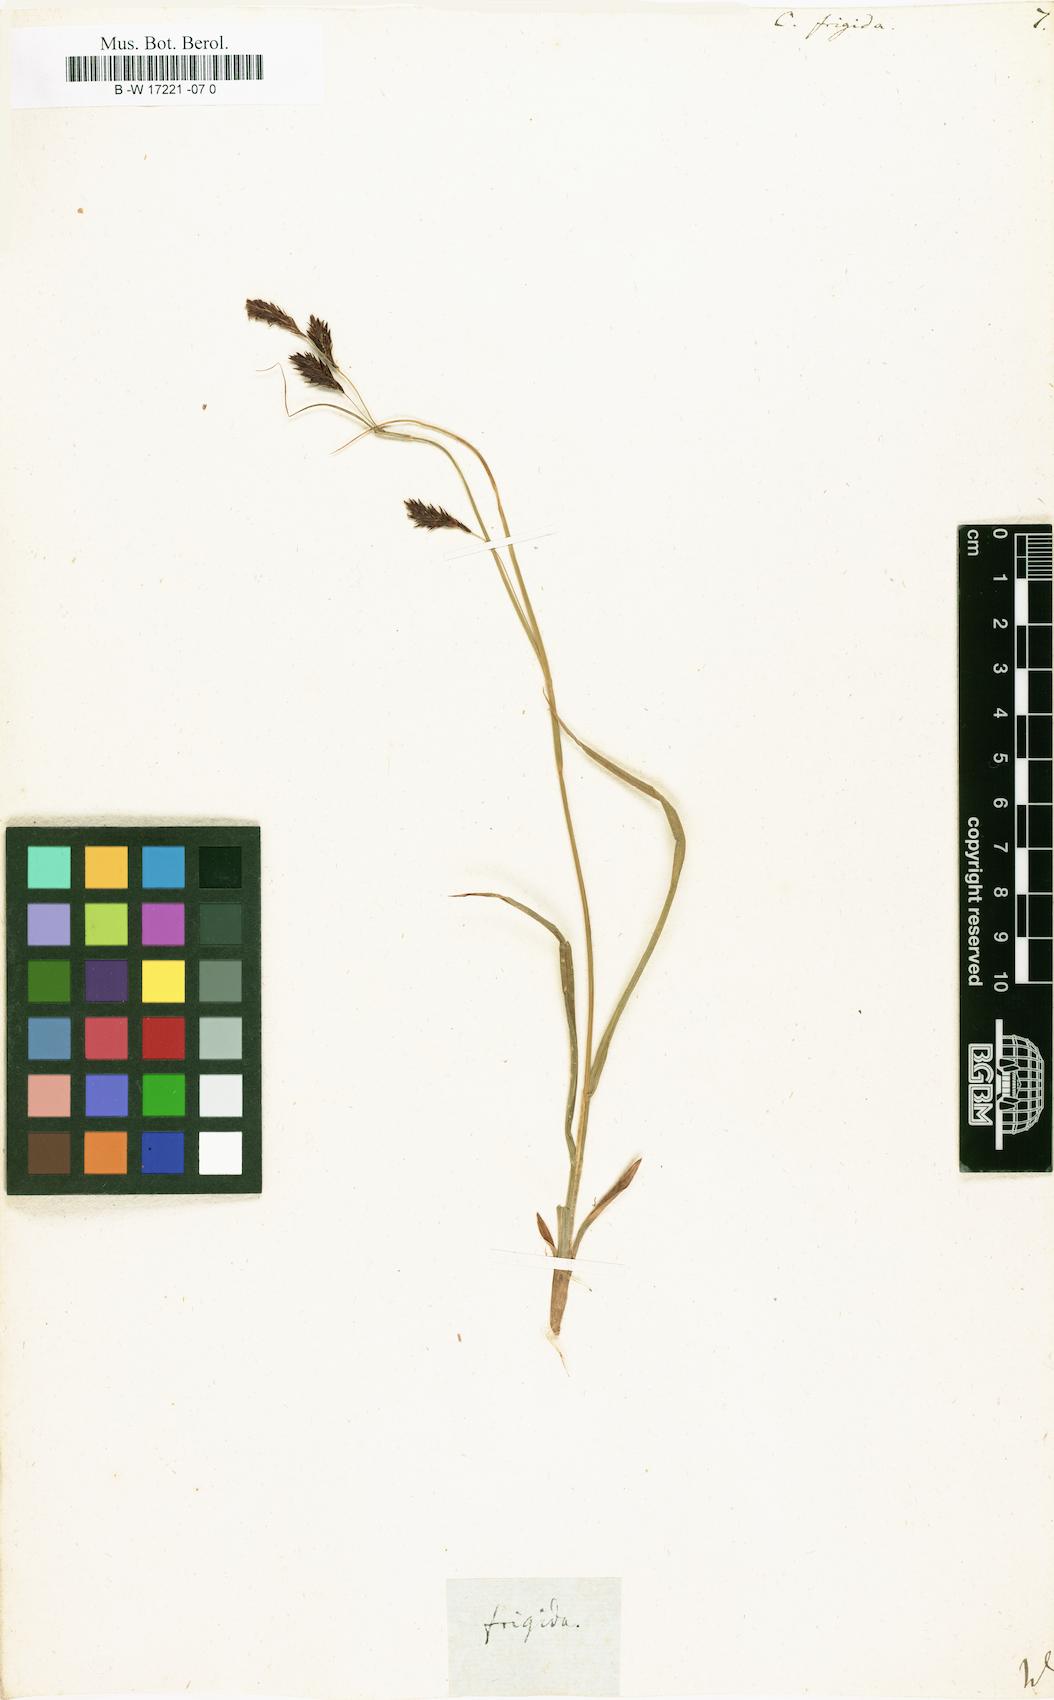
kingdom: Plantae
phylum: Tracheophyta
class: Liliopsida
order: Poales
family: Cyperaceae
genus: Carex
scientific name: Carex frigida
